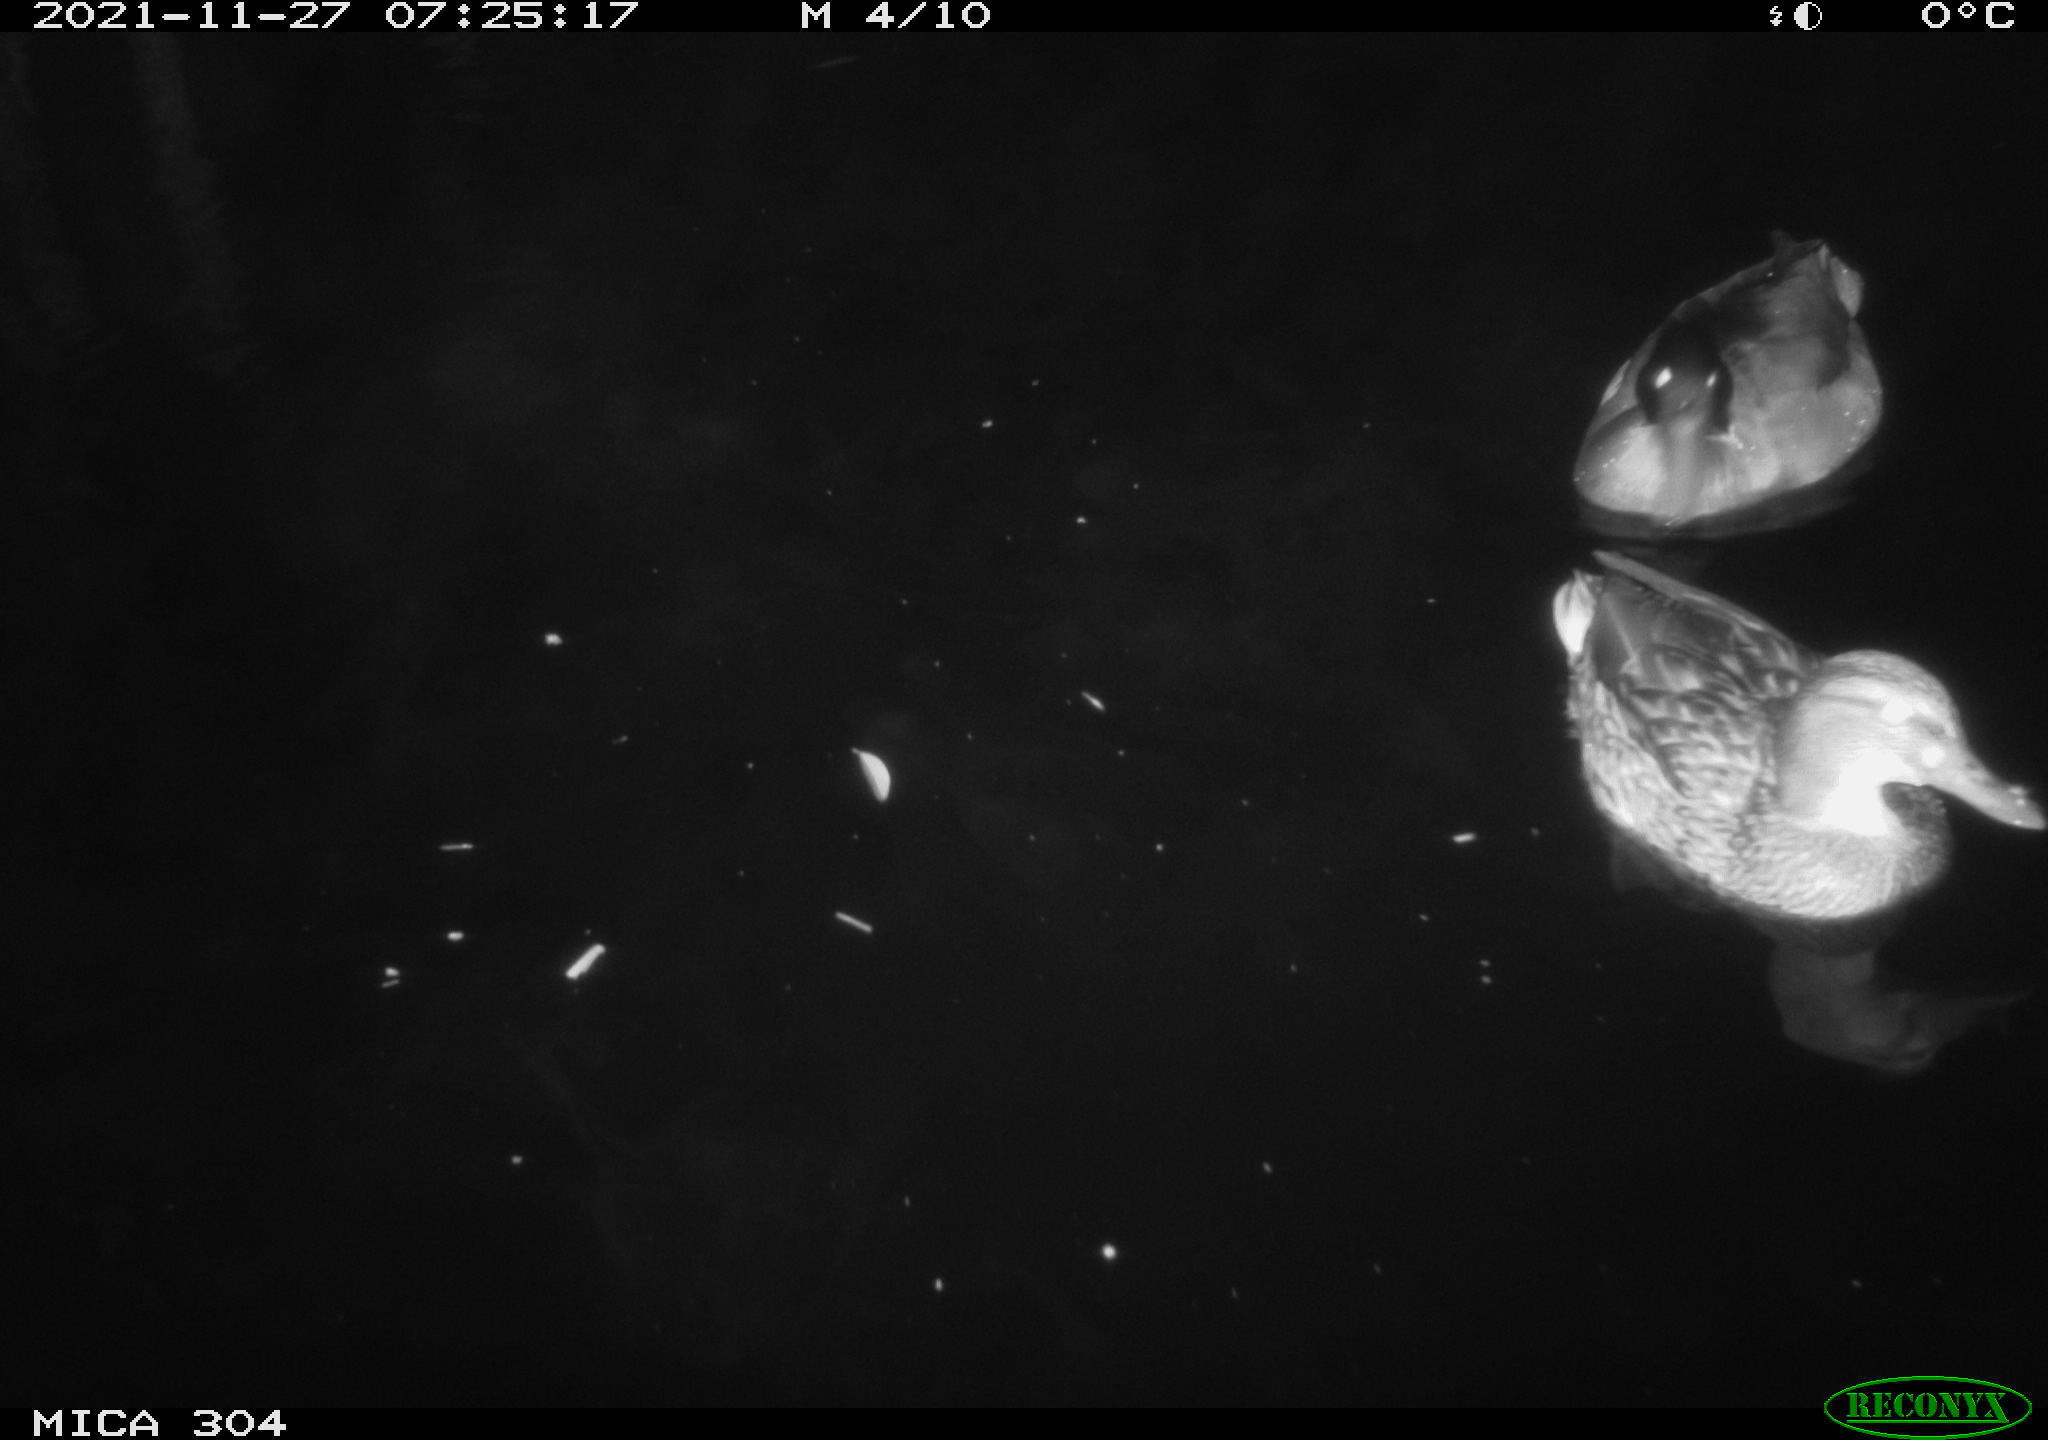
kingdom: Animalia
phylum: Chordata
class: Aves
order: Anseriformes
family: Anatidae
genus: Anas
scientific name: Anas platyrhynchos
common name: Mallard
